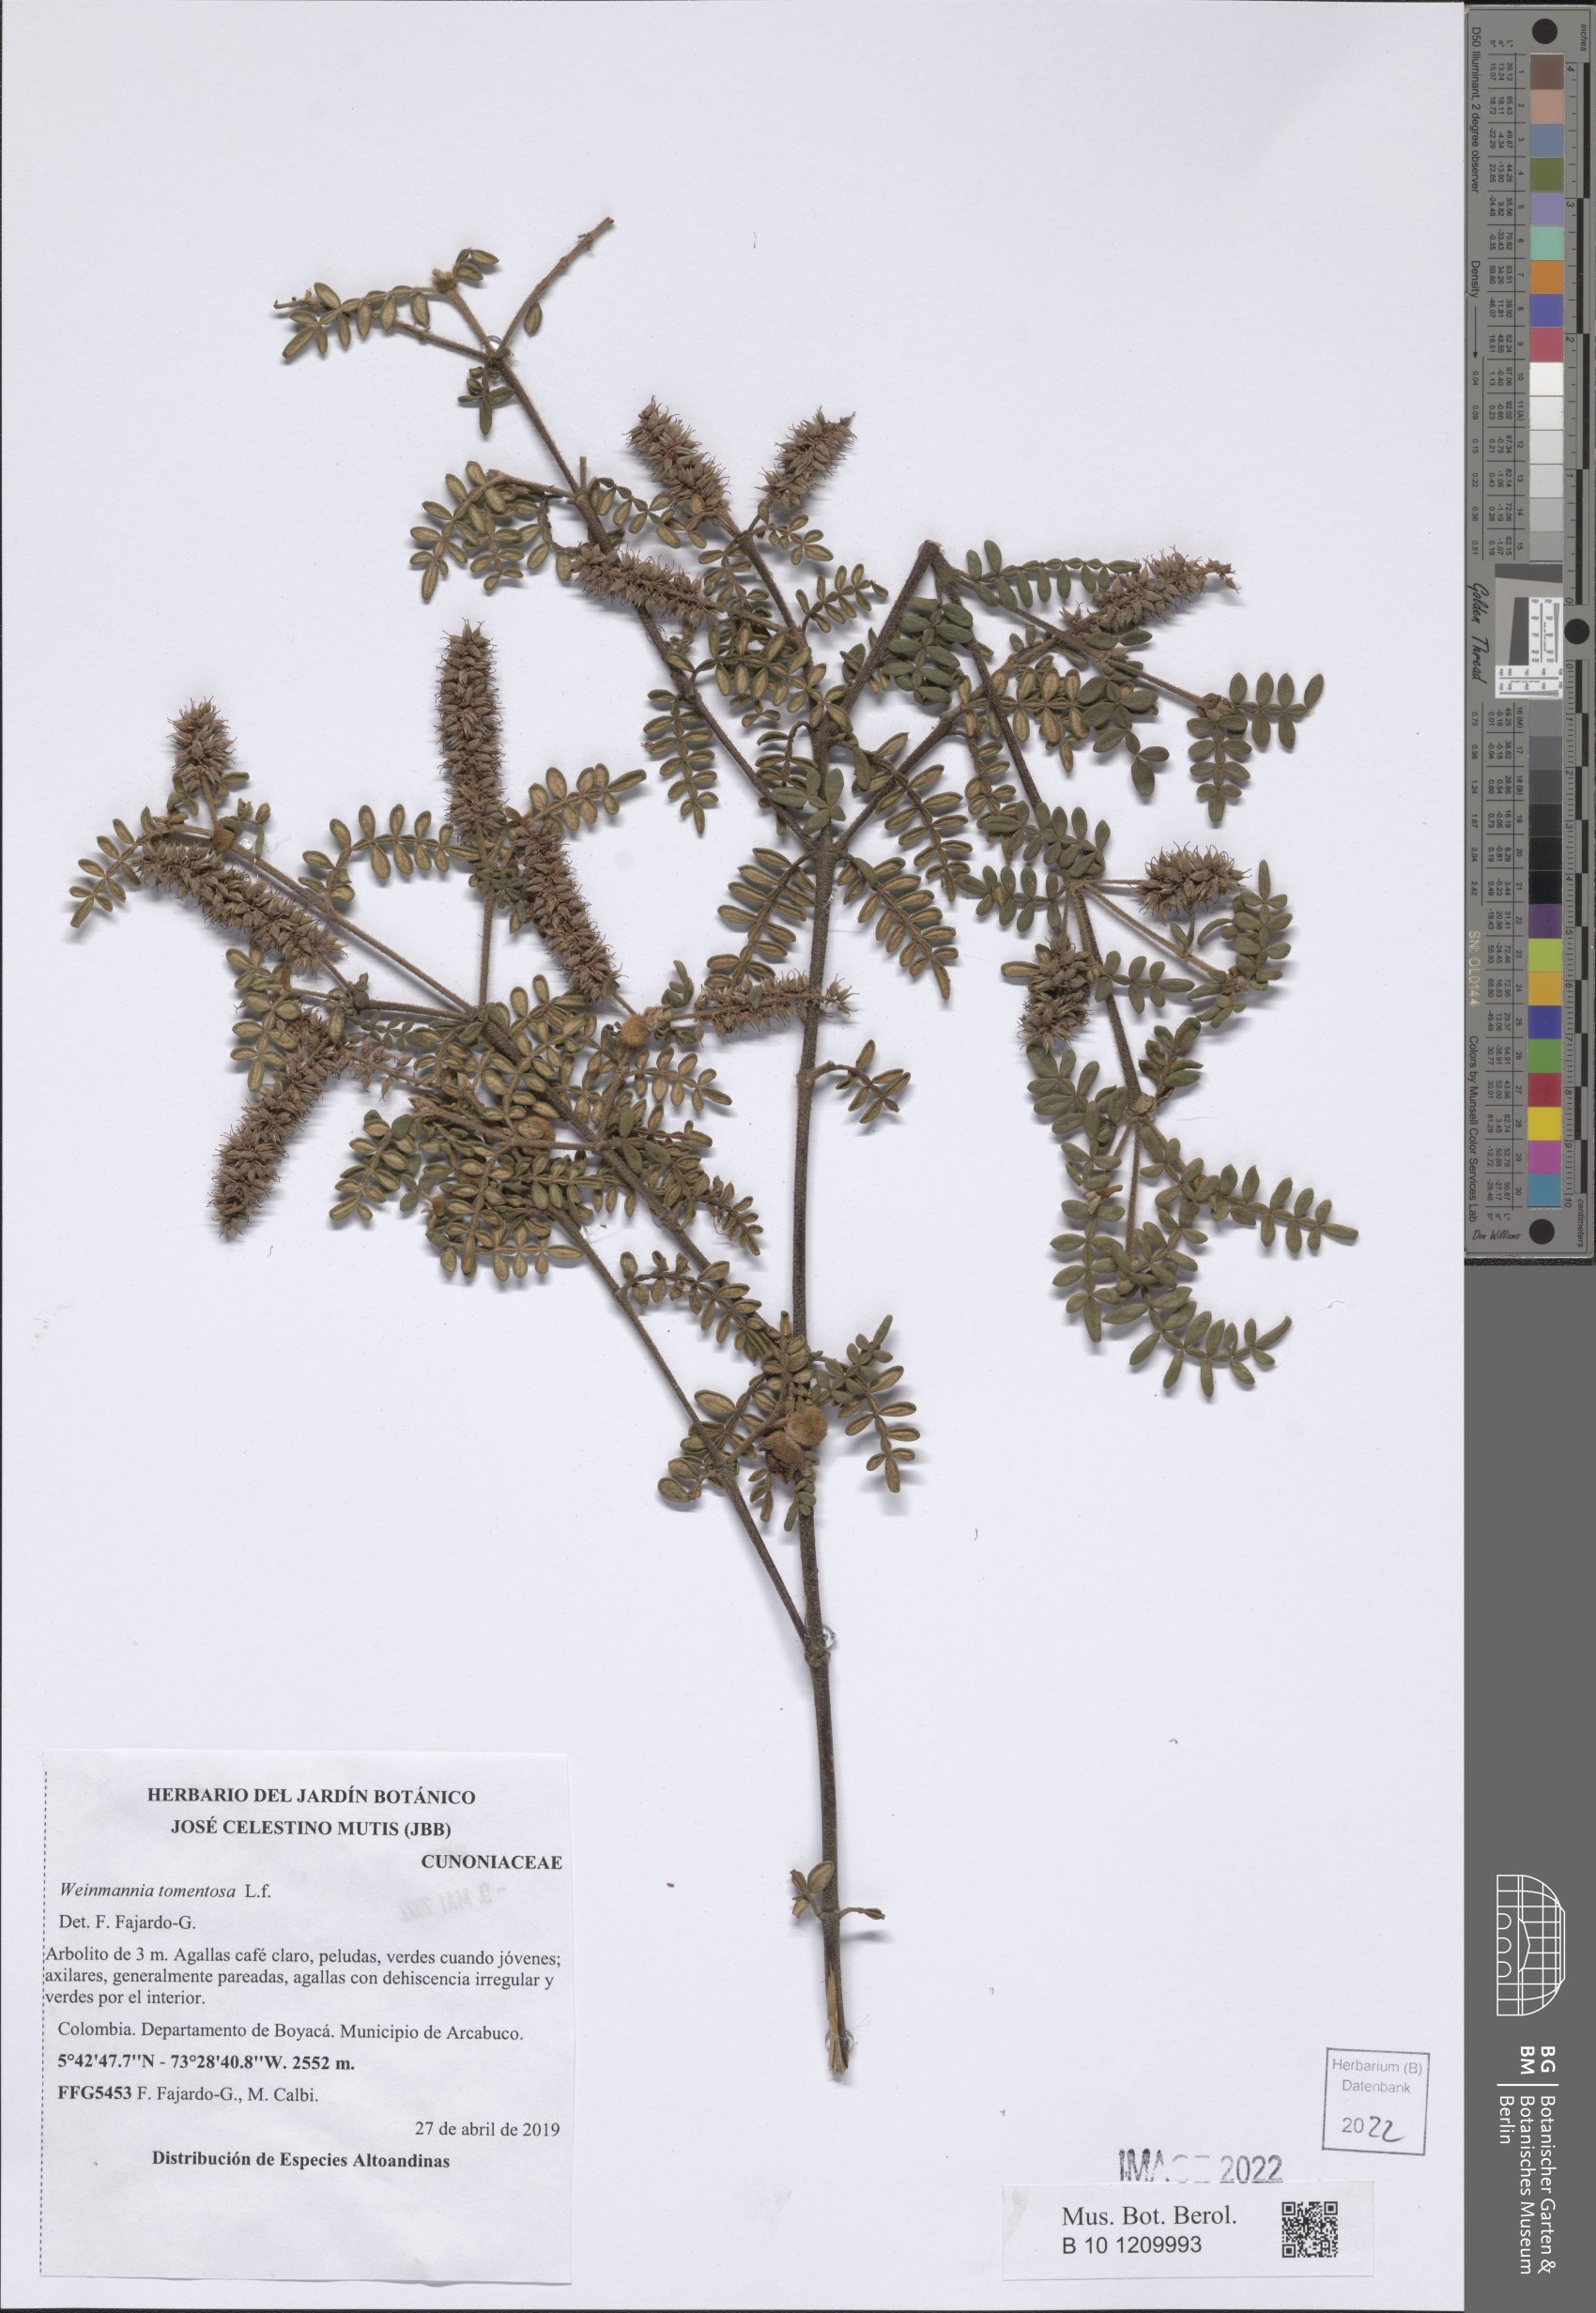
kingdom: Plantae
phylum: Tracheophyta
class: Magnoliopsida
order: Oxalidales
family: Cunoniaceae
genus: Weinmannia
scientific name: Weinmannia tomentosa
